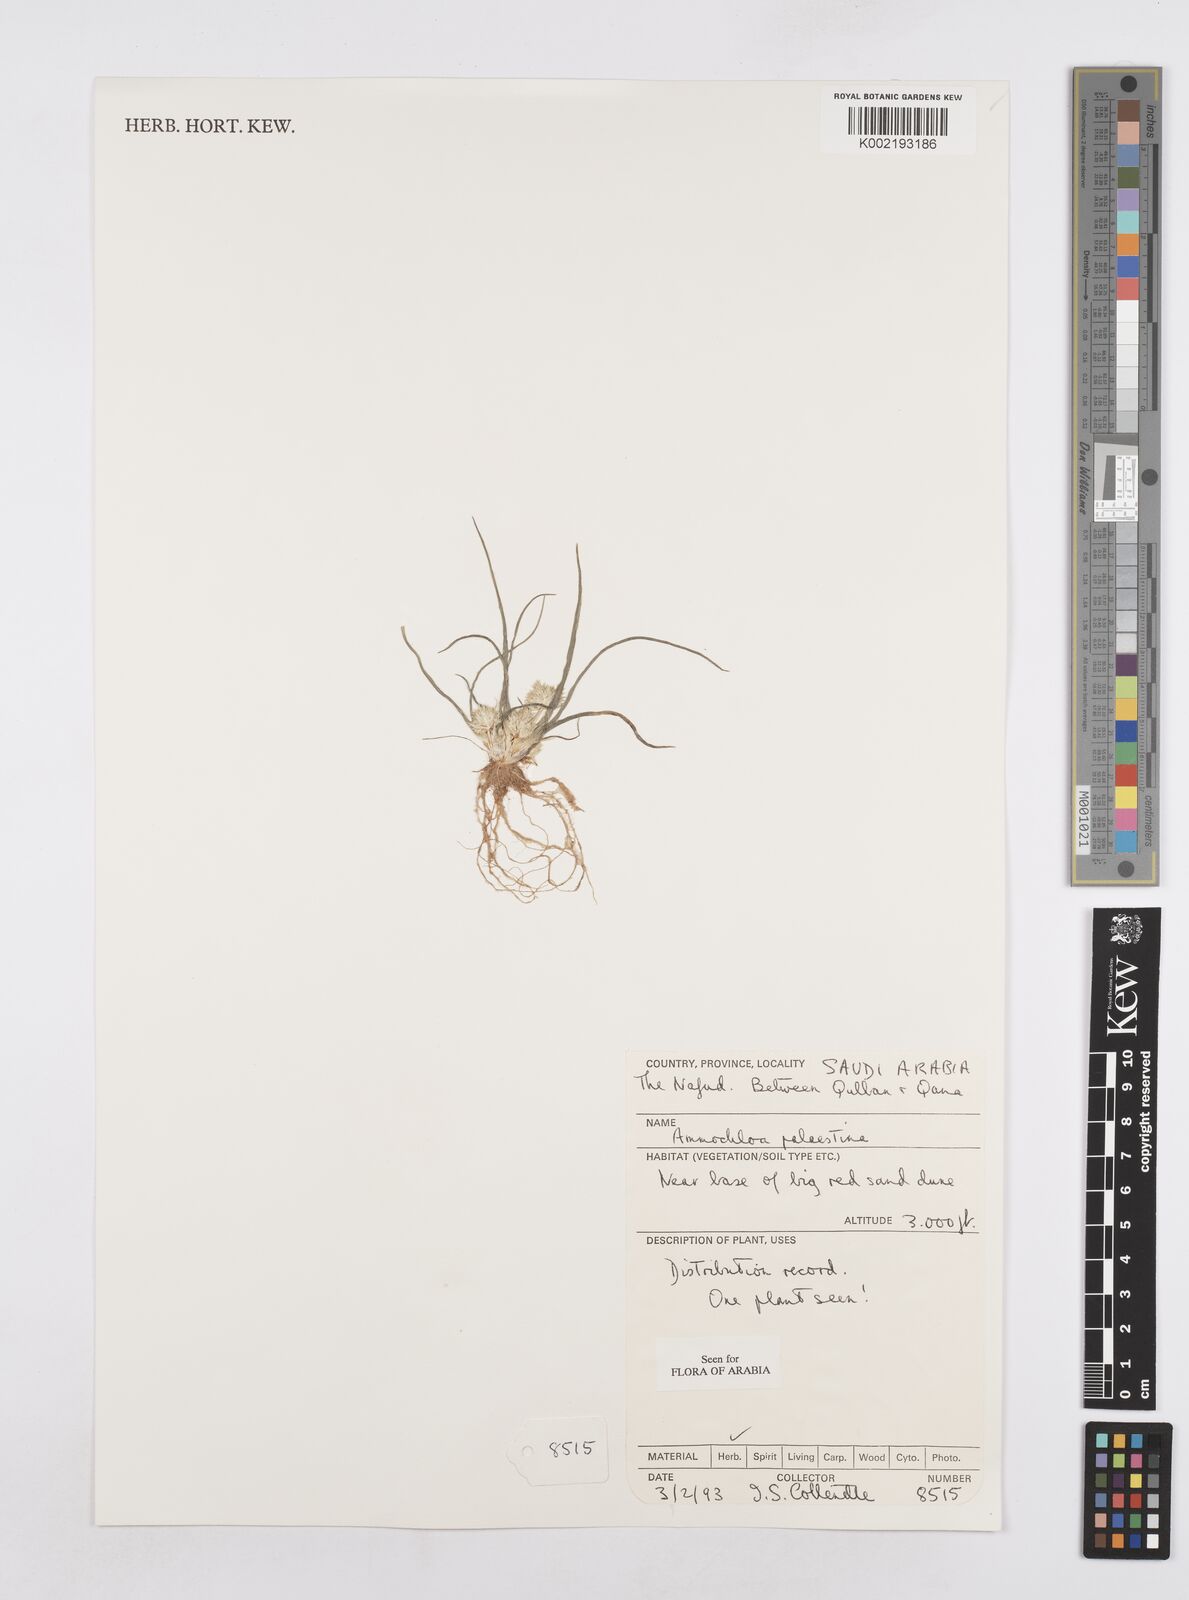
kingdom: Plantae
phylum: Tracheophyta
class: Liliopsida
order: Poales
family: Poaceae
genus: Ammochloa
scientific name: Ammochloa palaestina
